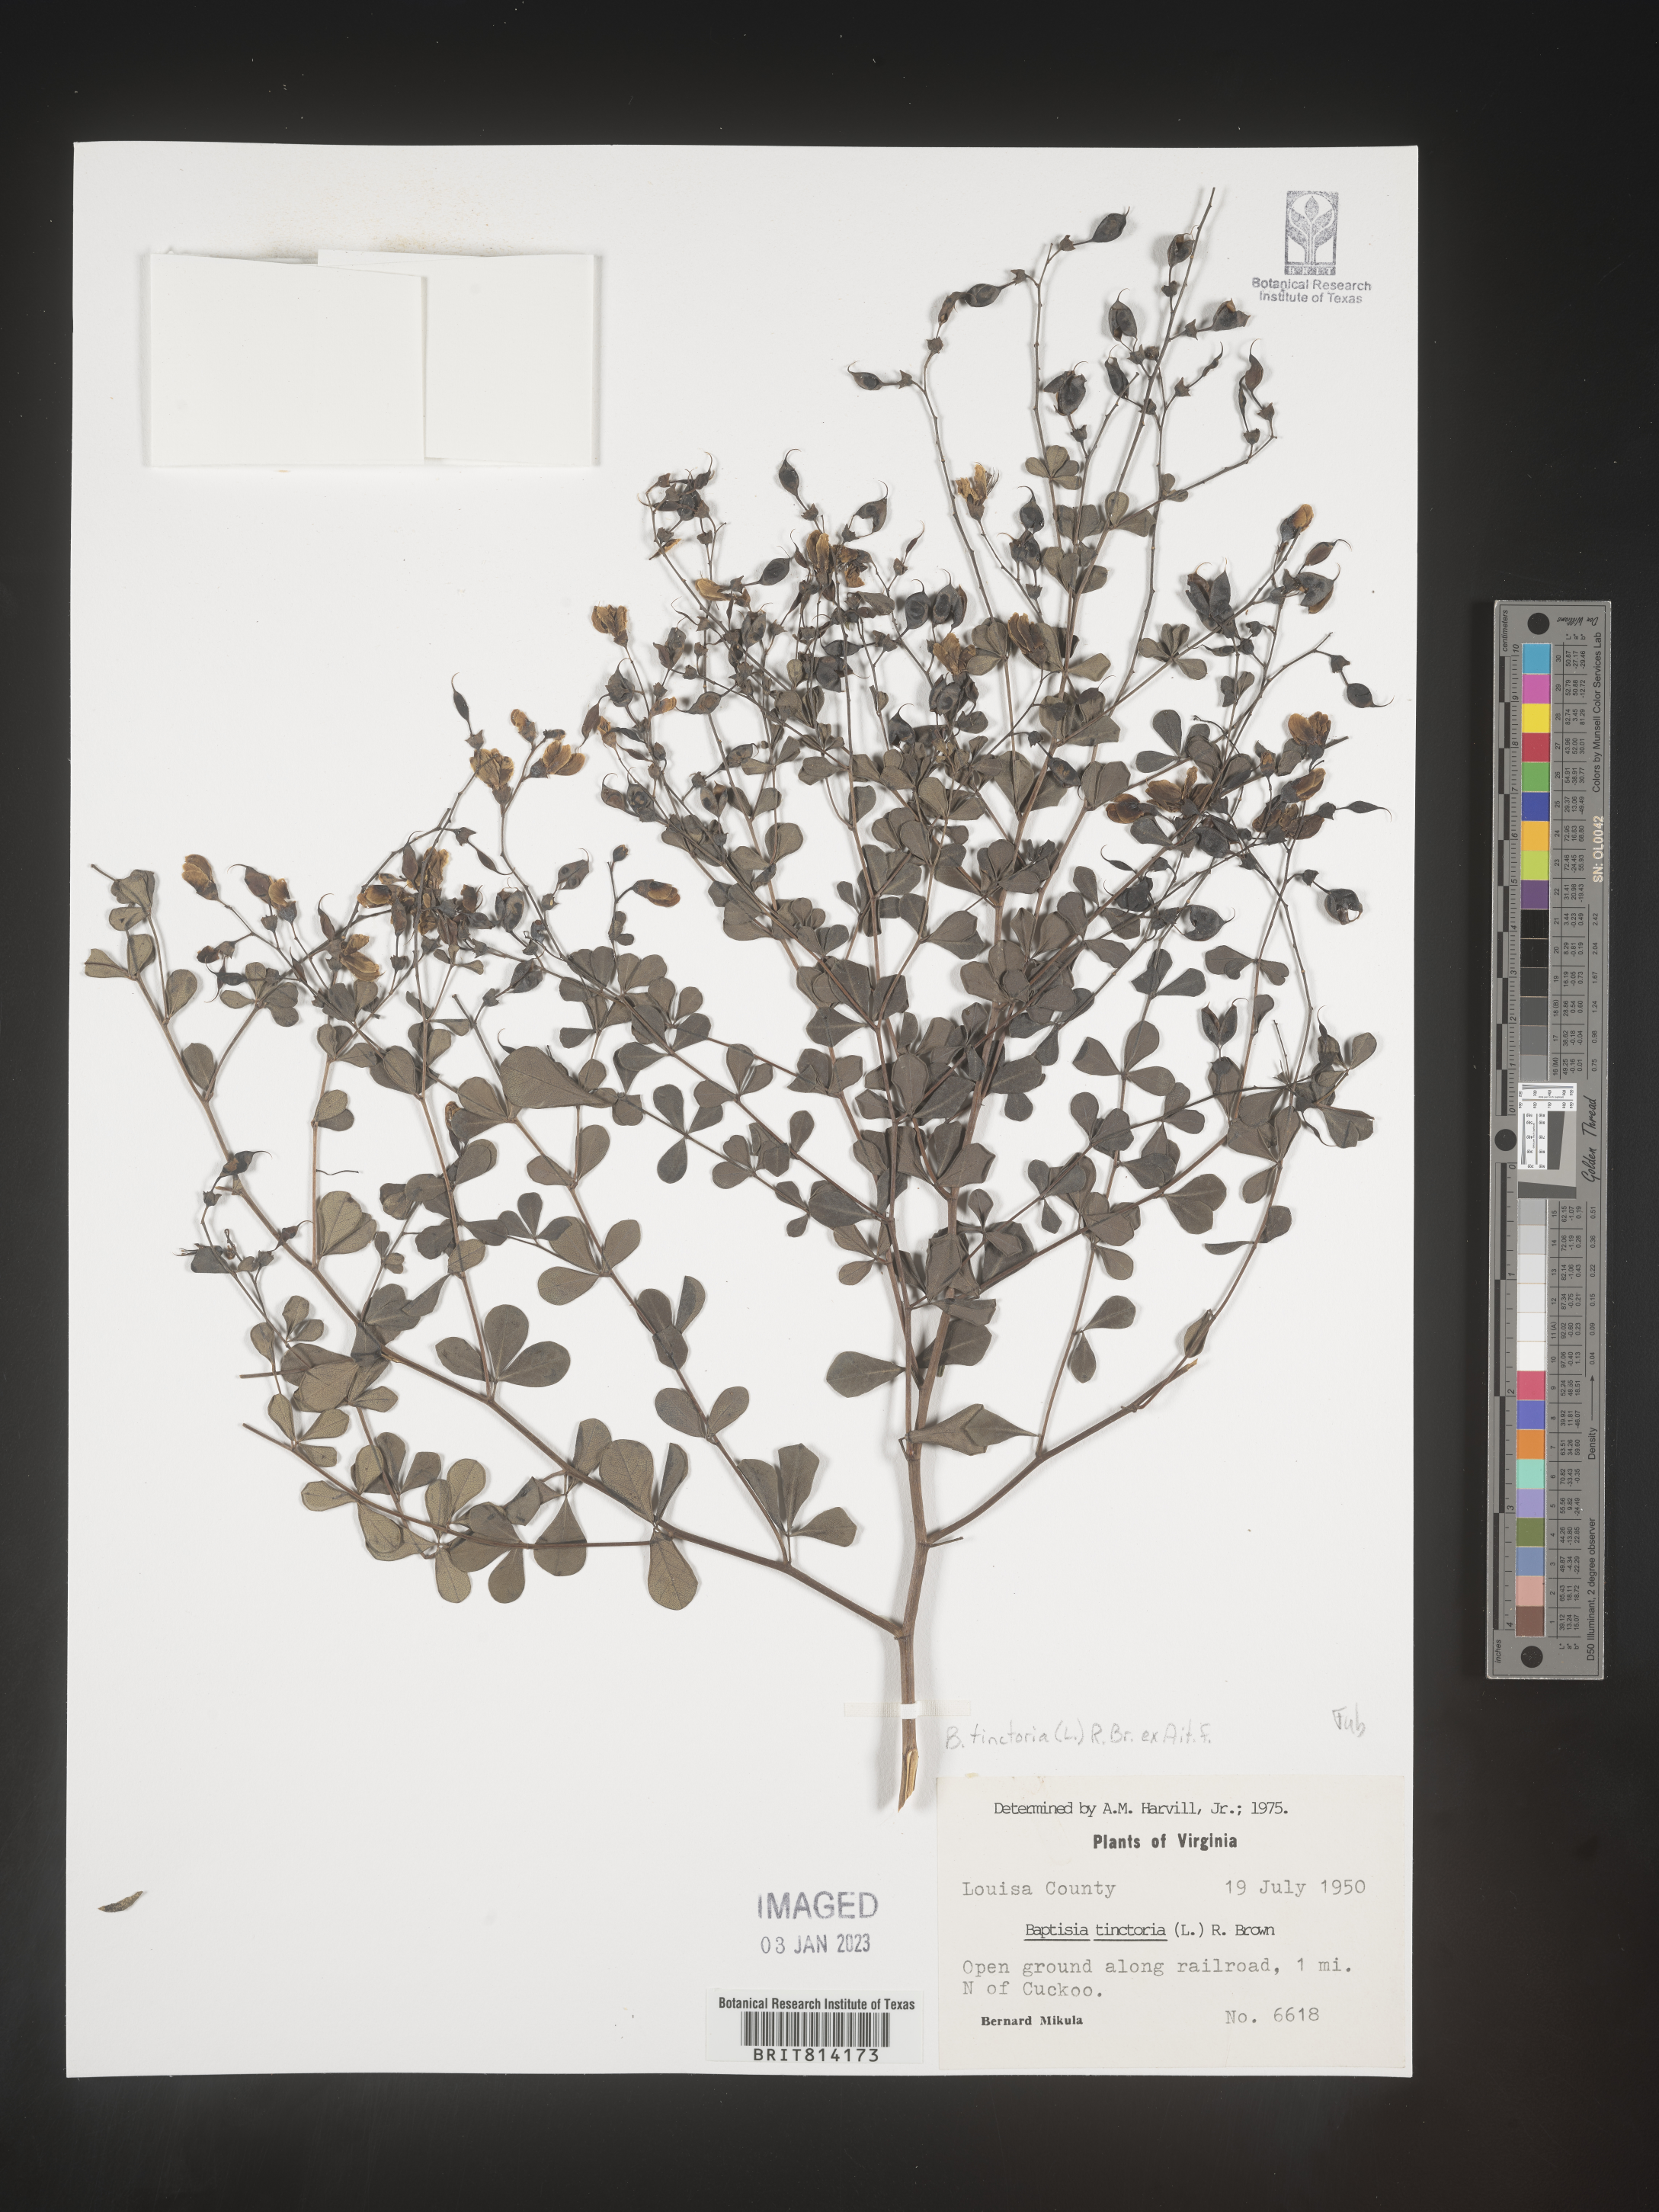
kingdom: Plantae
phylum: Tracheophyta
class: Magnoliopsida
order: Fabales
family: Fabaceae
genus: Baptisia
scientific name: Baptisia tinctoria
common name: Wild indigo
